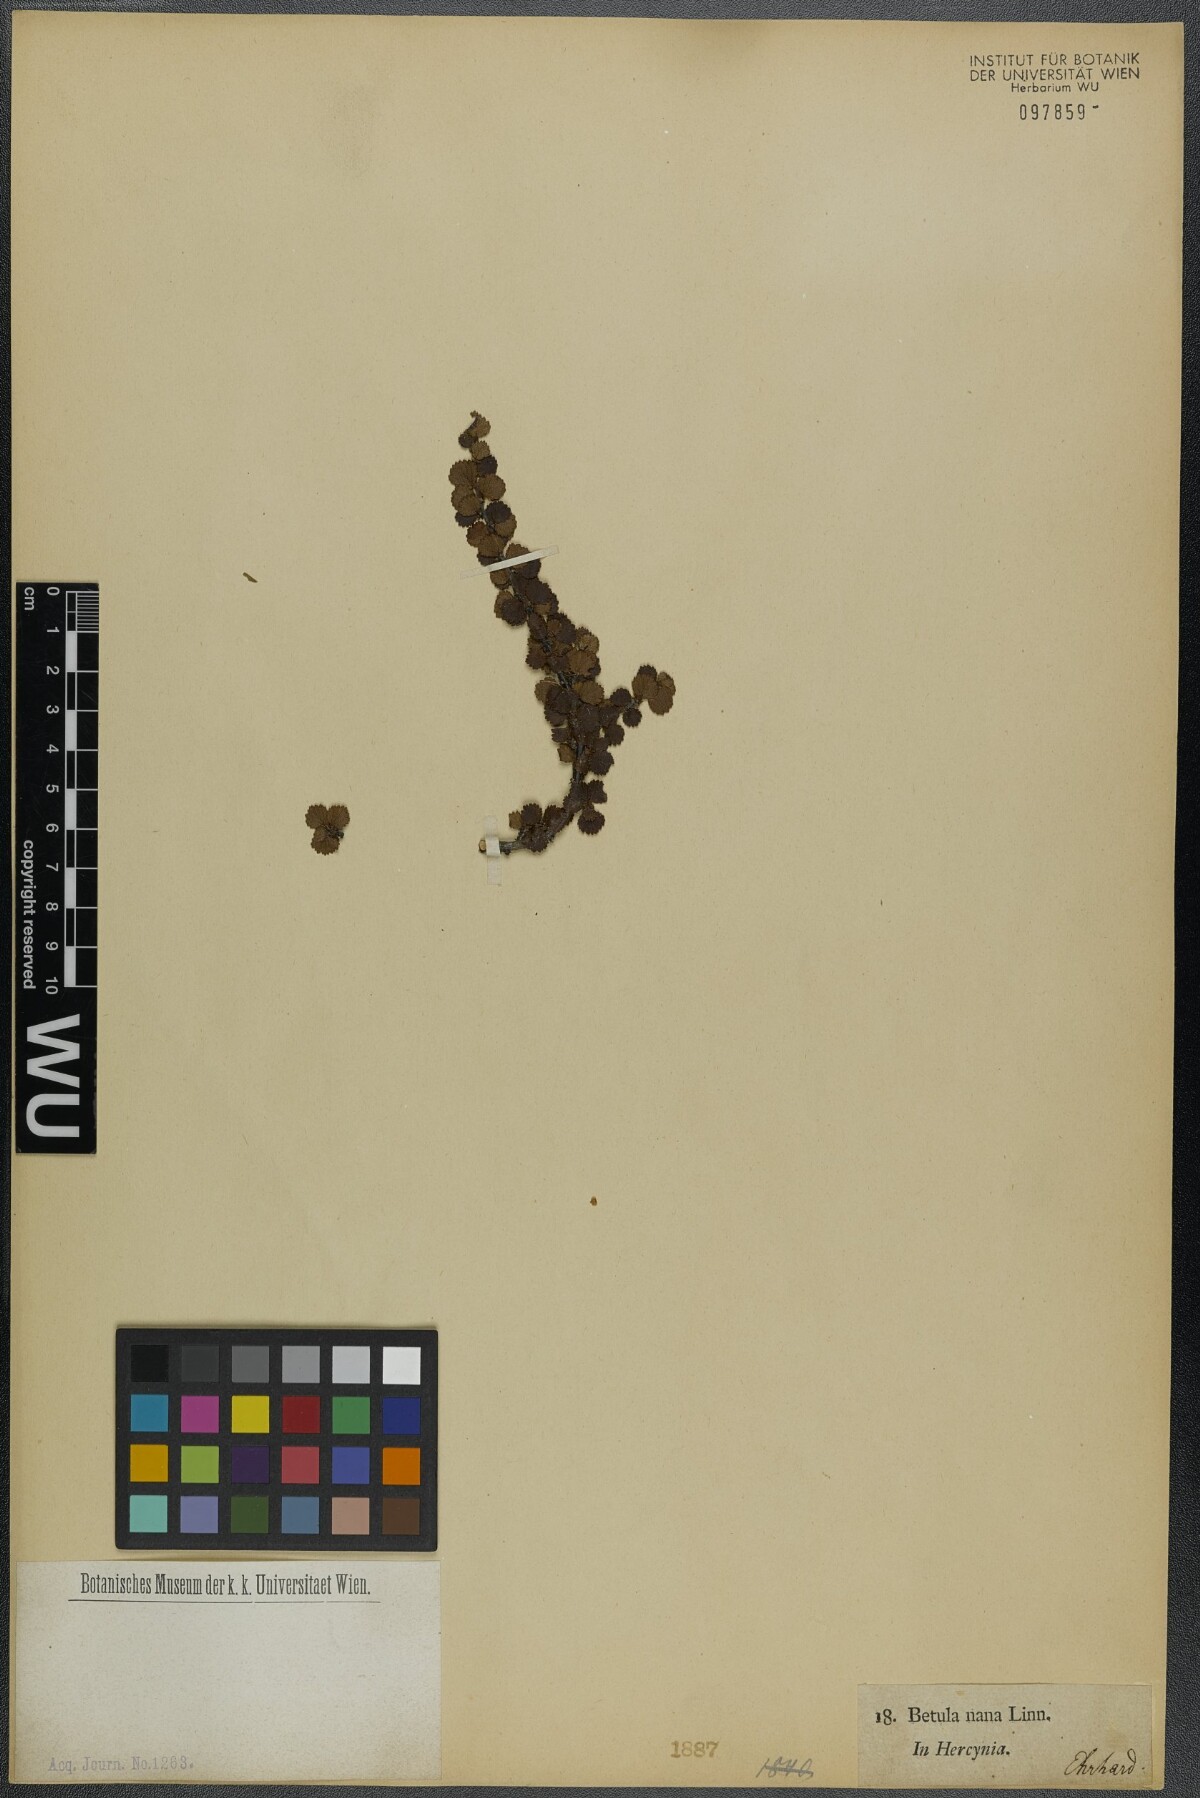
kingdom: Plantae
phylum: Tracheophyta
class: Magnoliopsida
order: Fagales
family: Betulaceae
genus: Betula
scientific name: Betula nana
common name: Arctic dwarf birch
